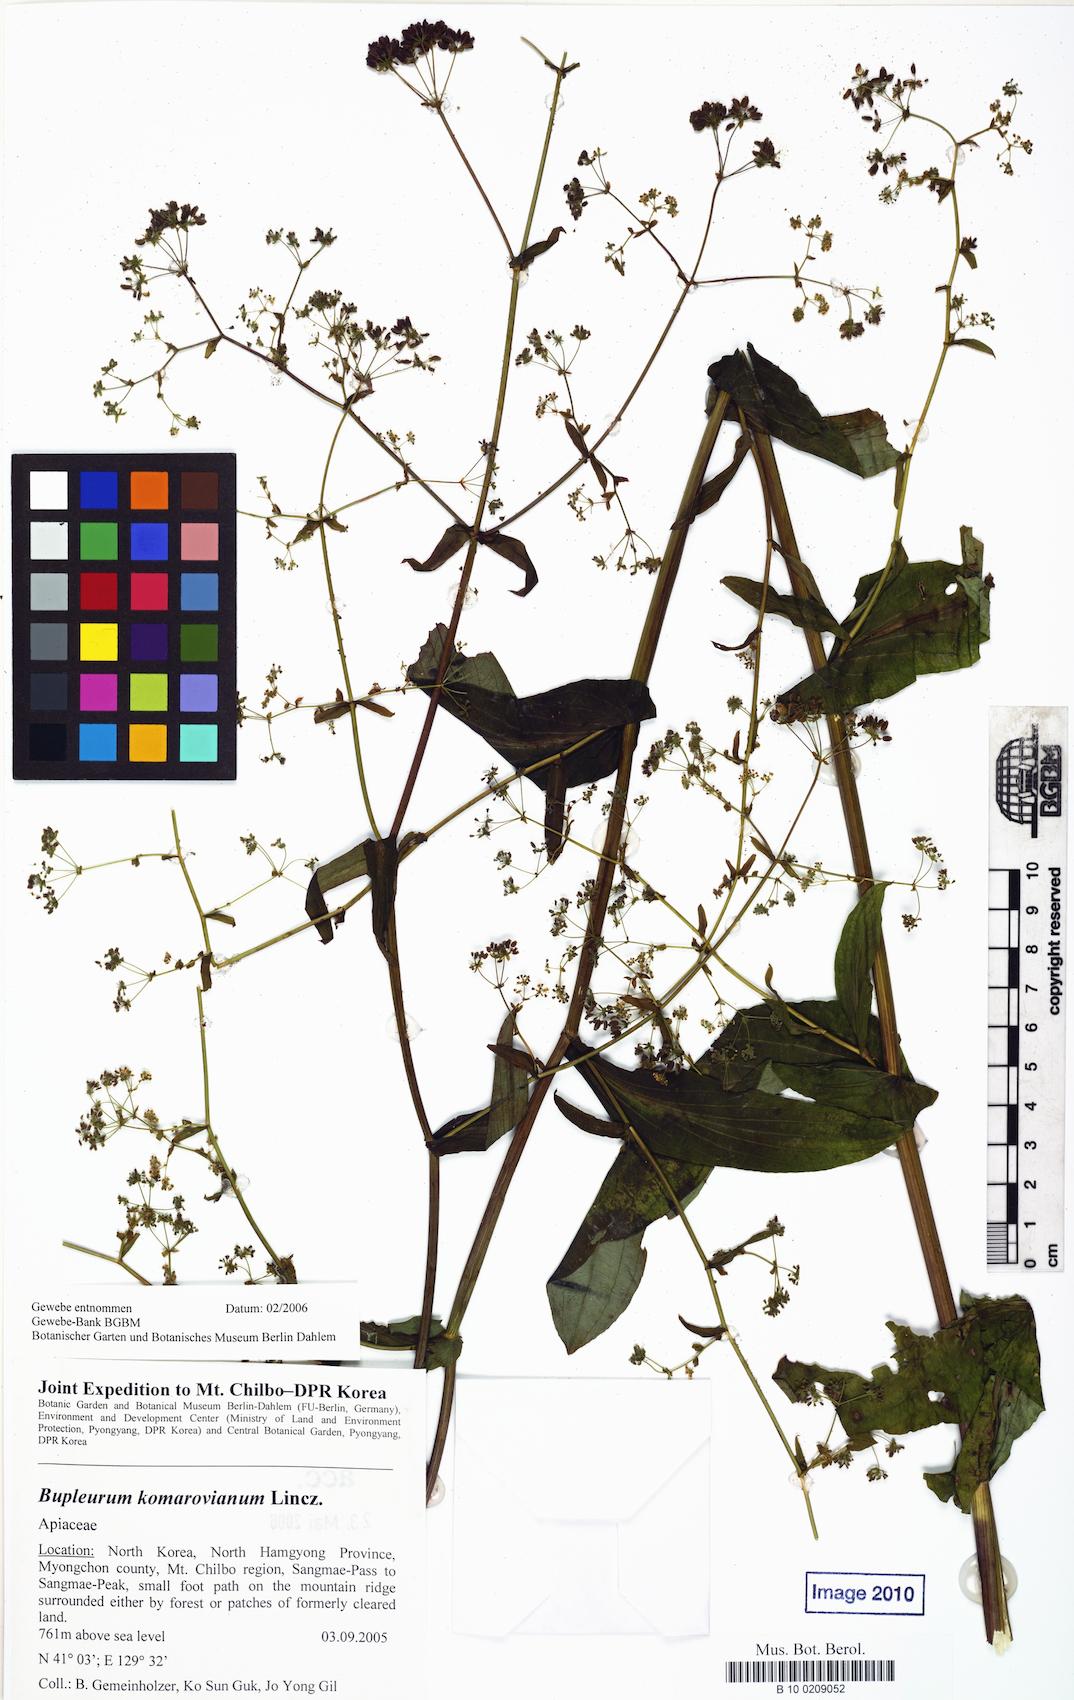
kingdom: Plantae
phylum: Tracheophyta
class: Magnoliopsida
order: Apiales
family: Apiaceae
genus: Bupleurum
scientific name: Bupleurum komarovianum
